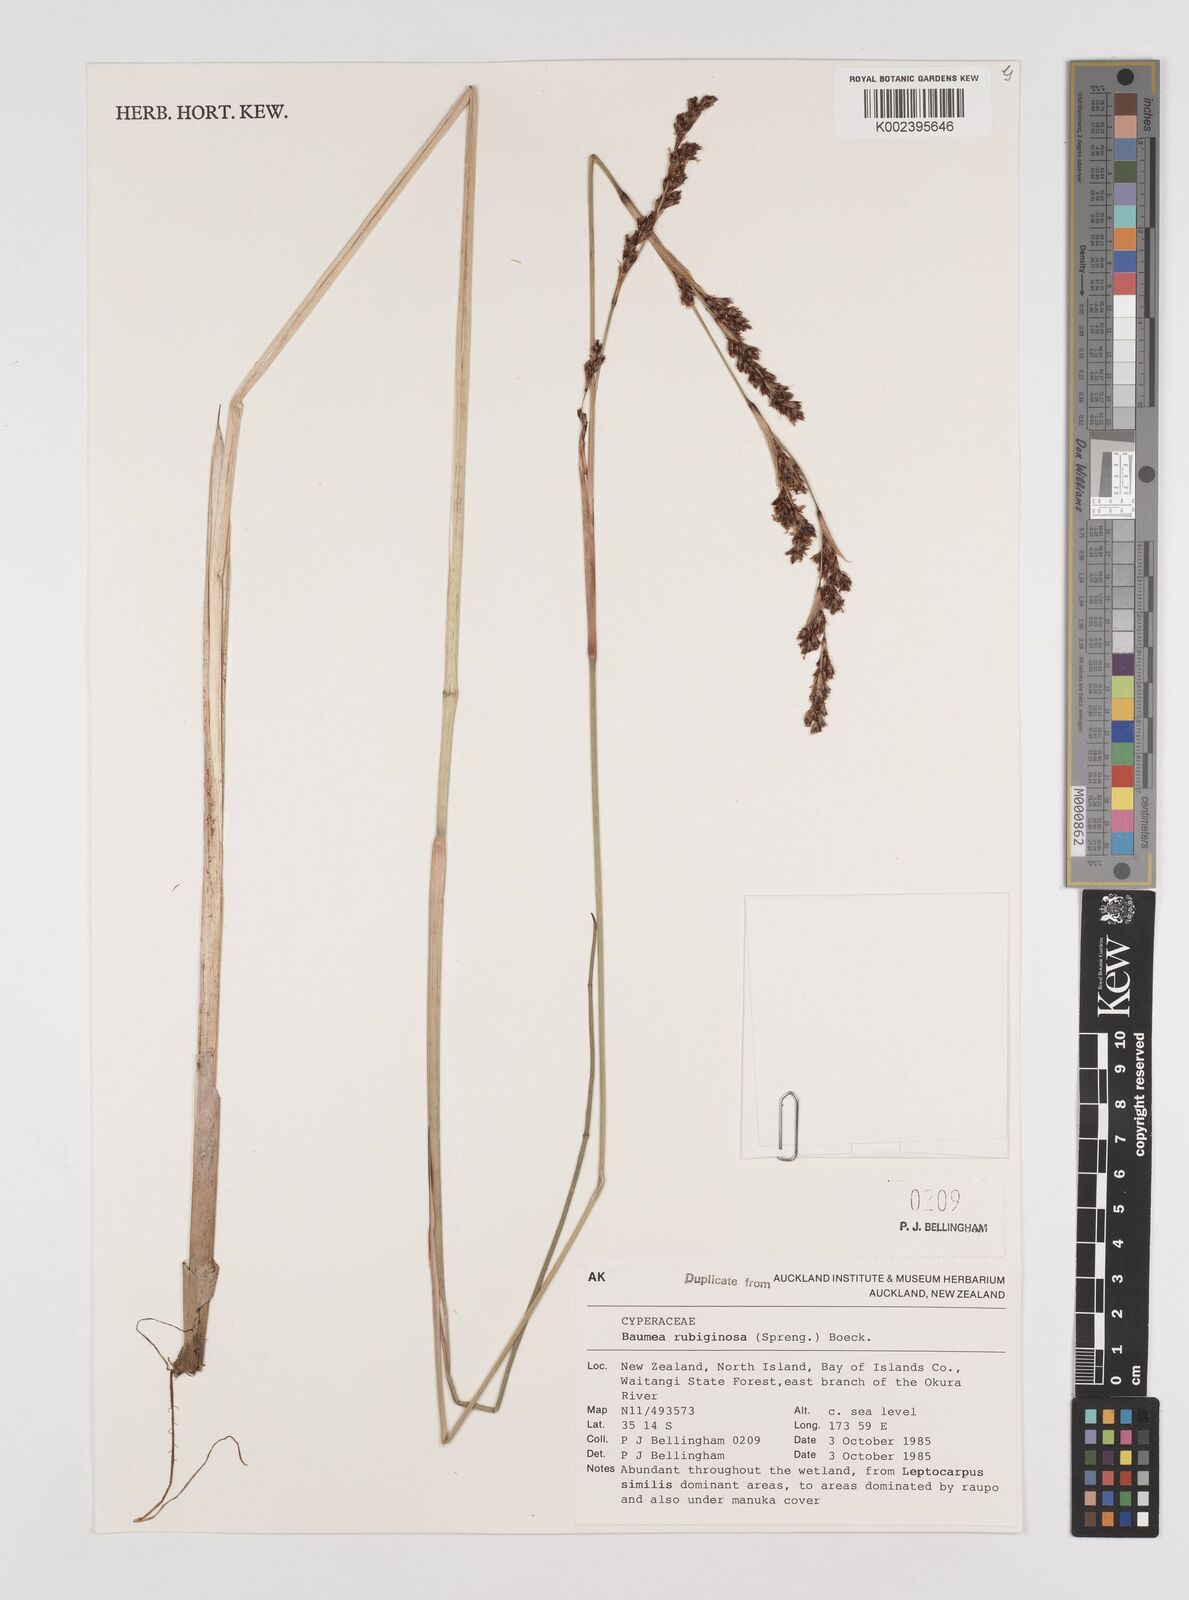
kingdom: Plantae
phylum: Tracheophyta
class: Liliopsida
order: Poales
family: Cyperaceae
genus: Machaerina
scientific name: Machaerina rubiginosa
